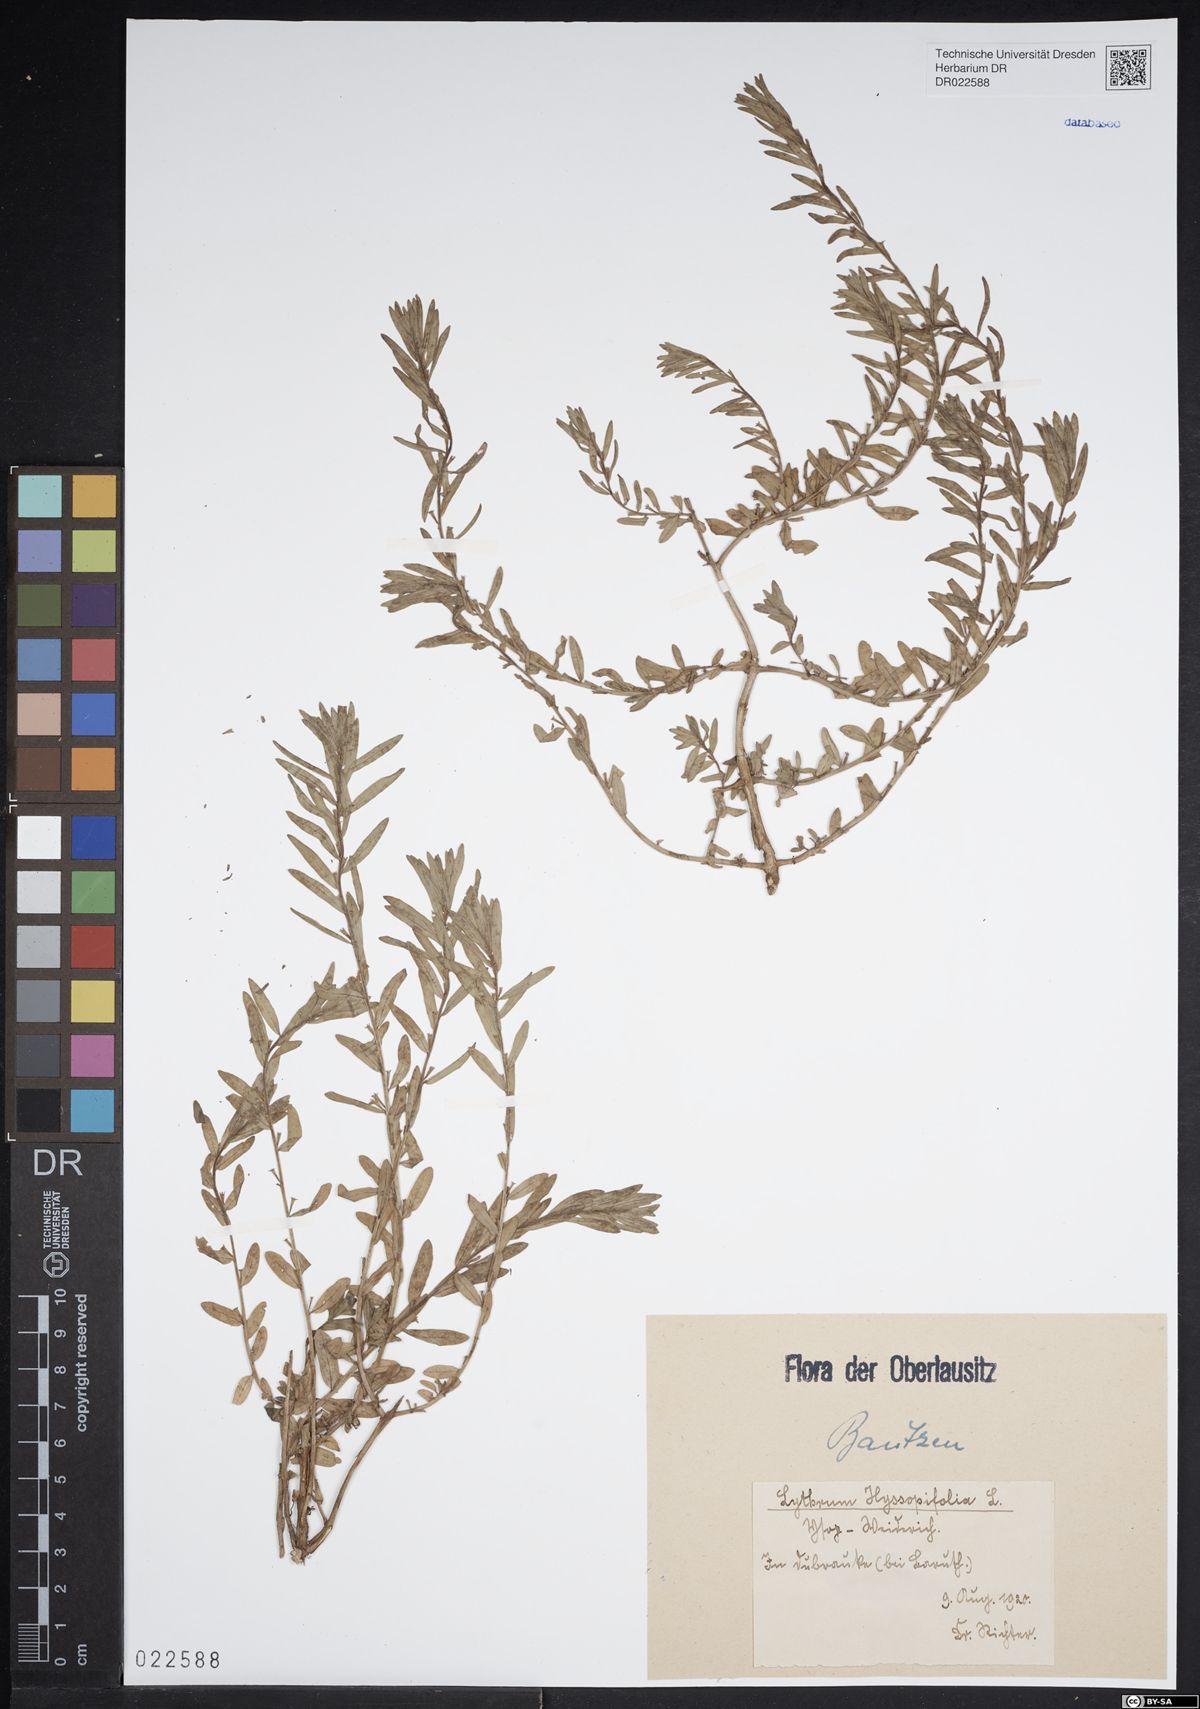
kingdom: Plantae
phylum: Tracheophyta
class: Magnoliopsida
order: Myrtales
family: Lythraceae
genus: Lythrum
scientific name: Lythrum hyssopifolia
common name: Grass-poly
